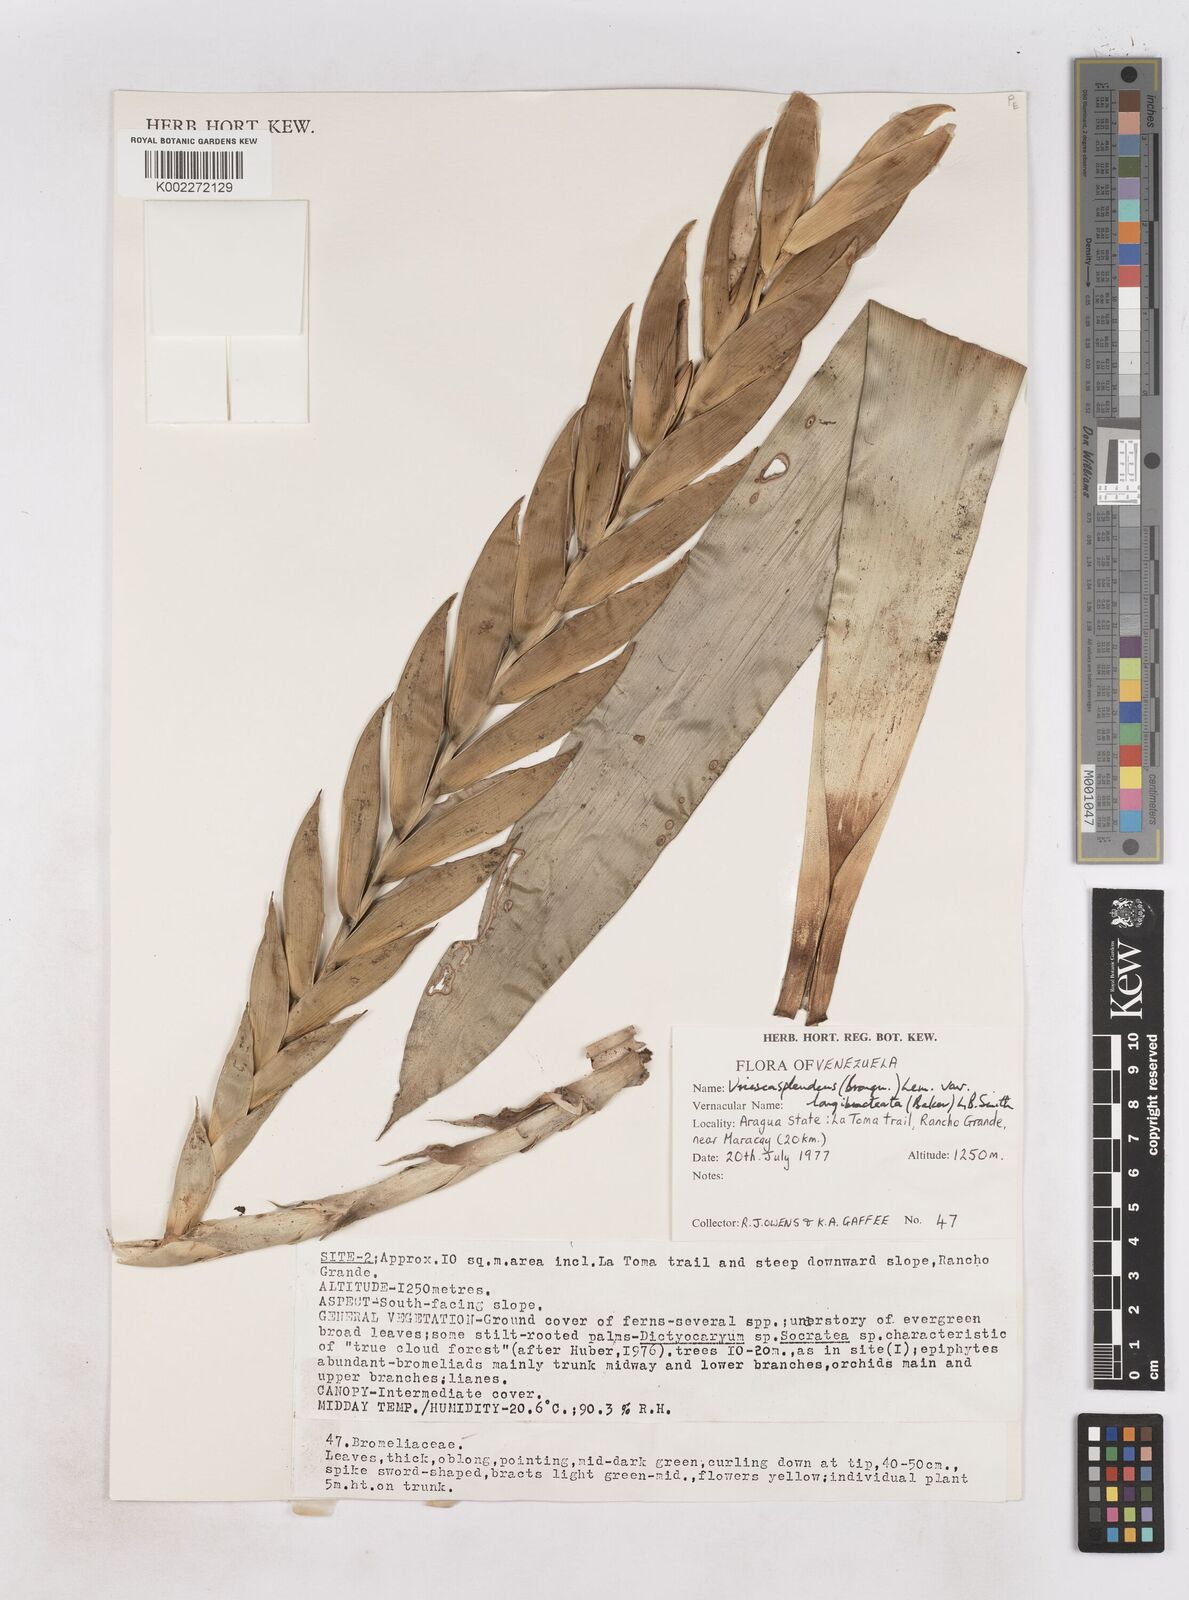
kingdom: Plantae
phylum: Tracheophyta
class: Liliopsida
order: Poales
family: Bromeliaceae
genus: Lutheria
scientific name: Lutheria splendens
